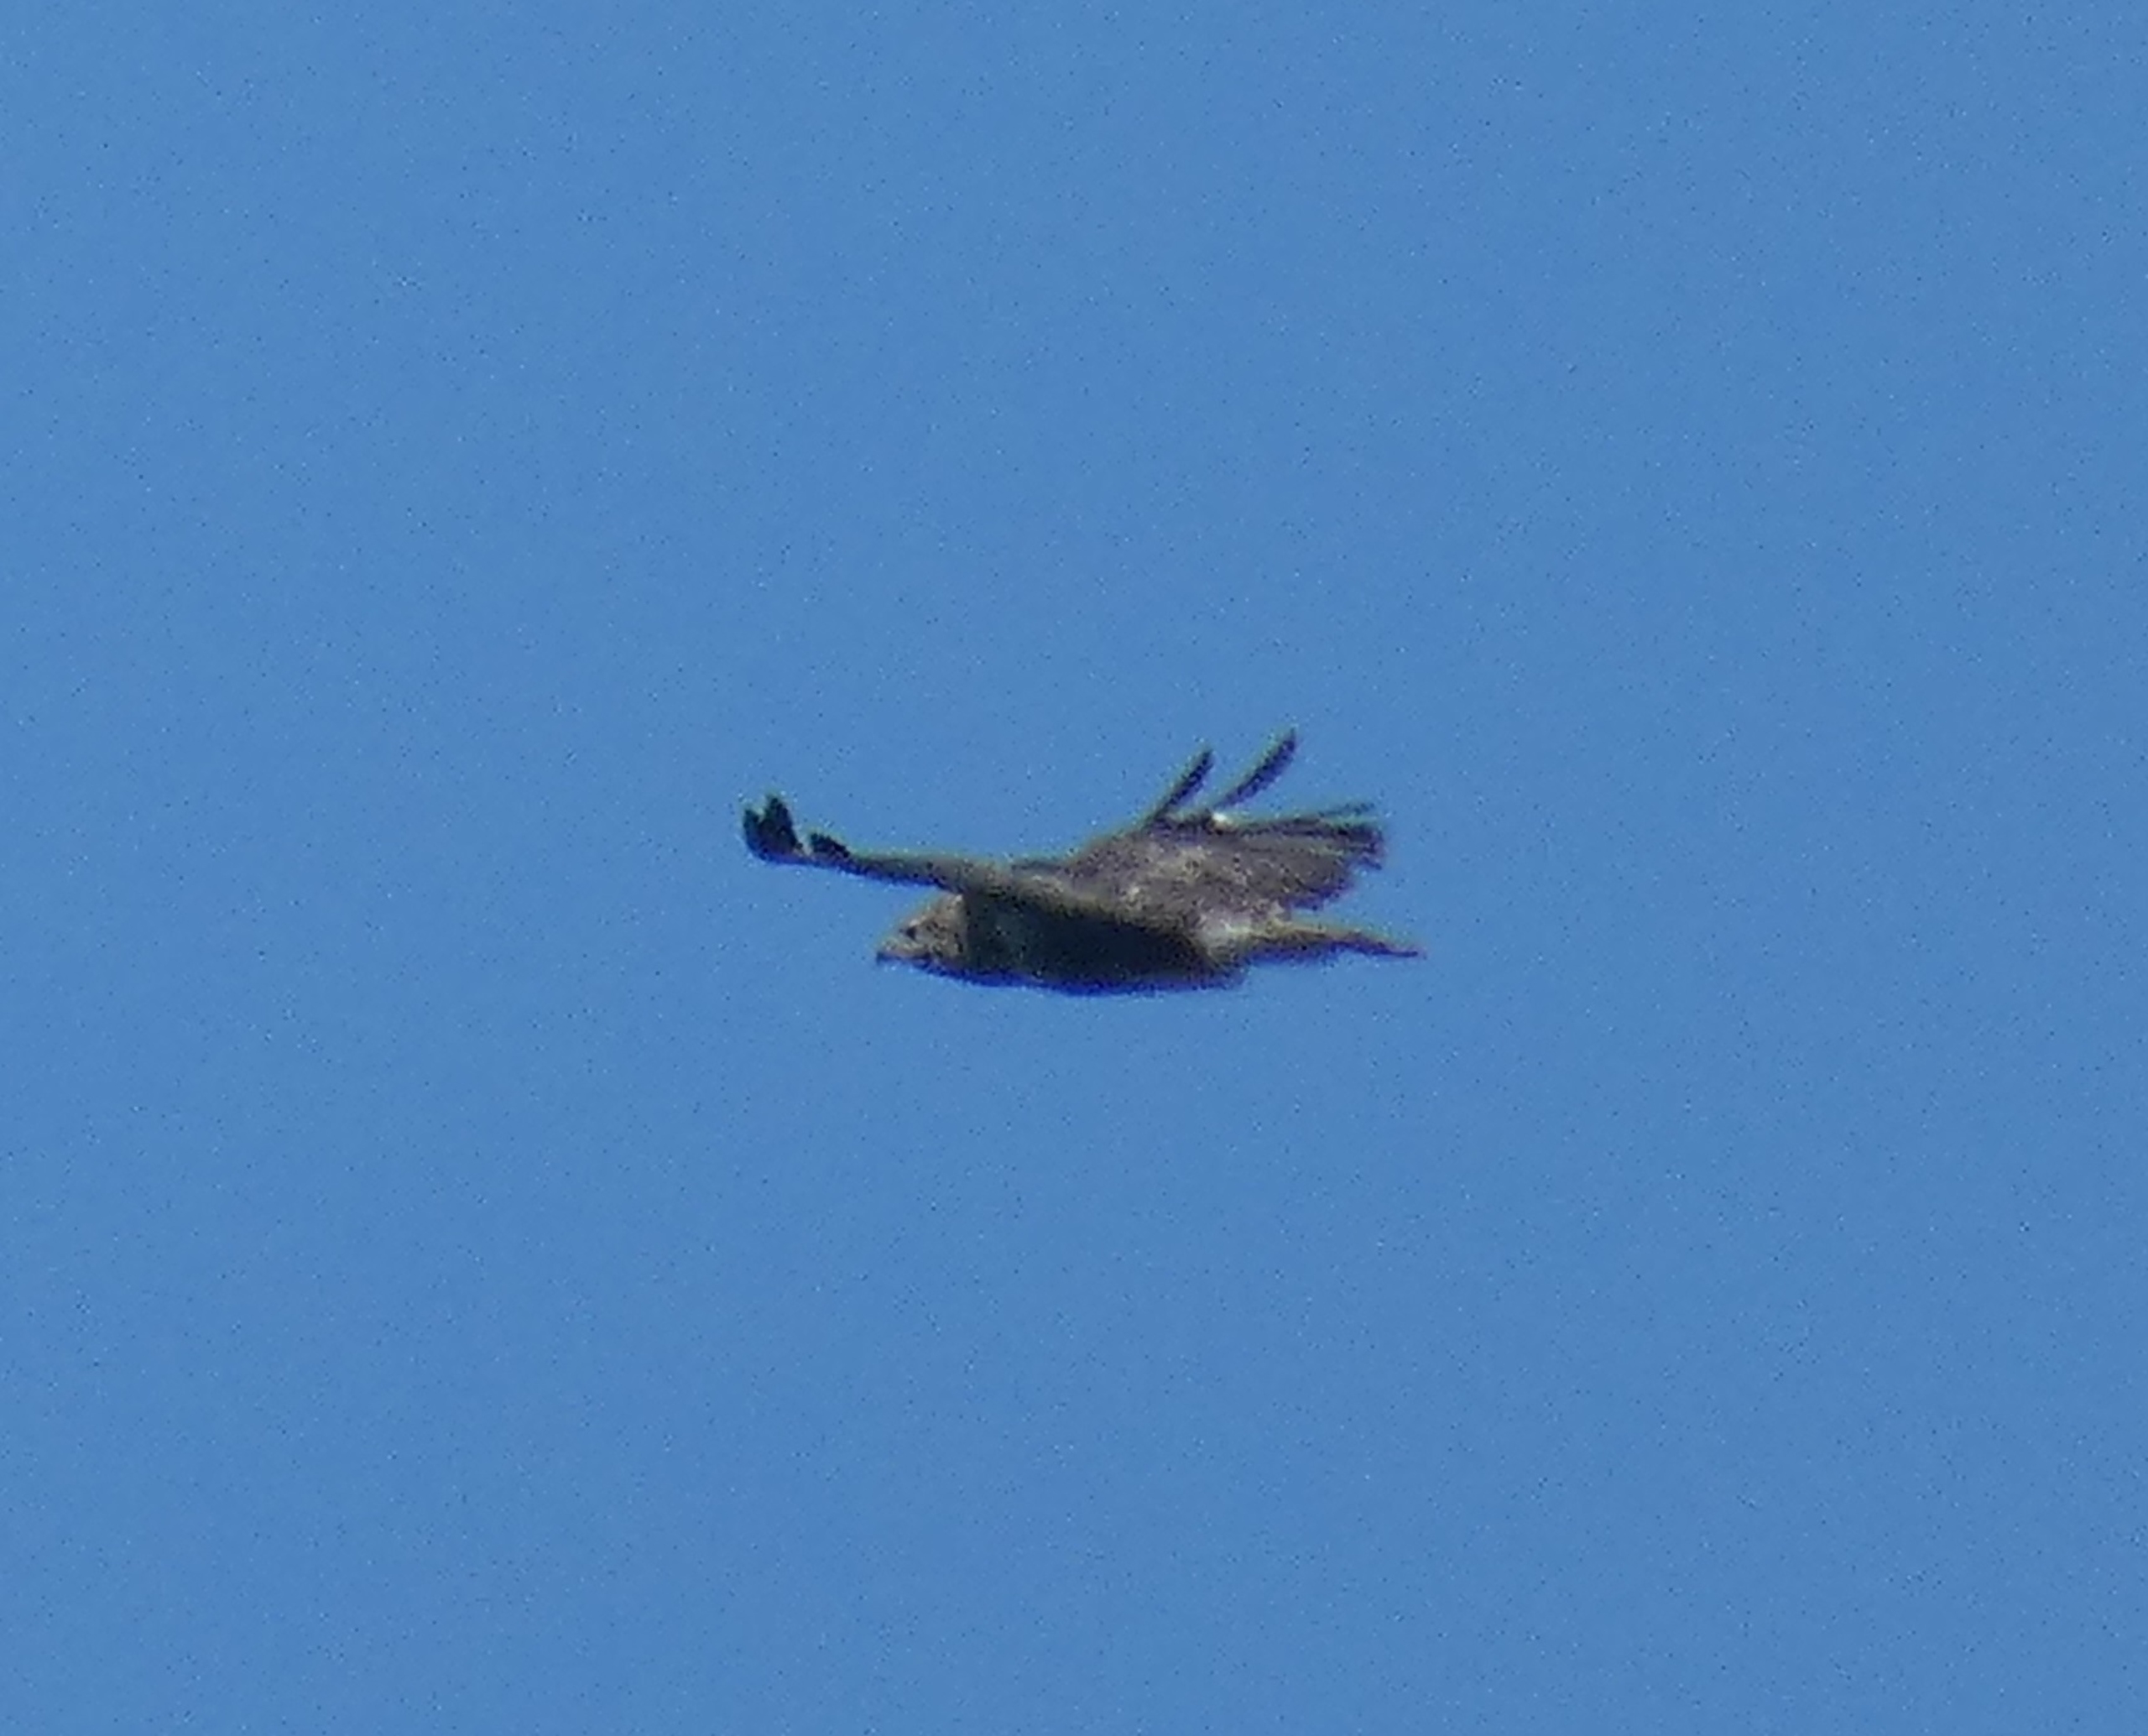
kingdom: Animalia
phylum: Chordata
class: Aves
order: Accipitriformes
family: Accipitridae
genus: Buteo
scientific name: Buteo buteo
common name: Musvåge
